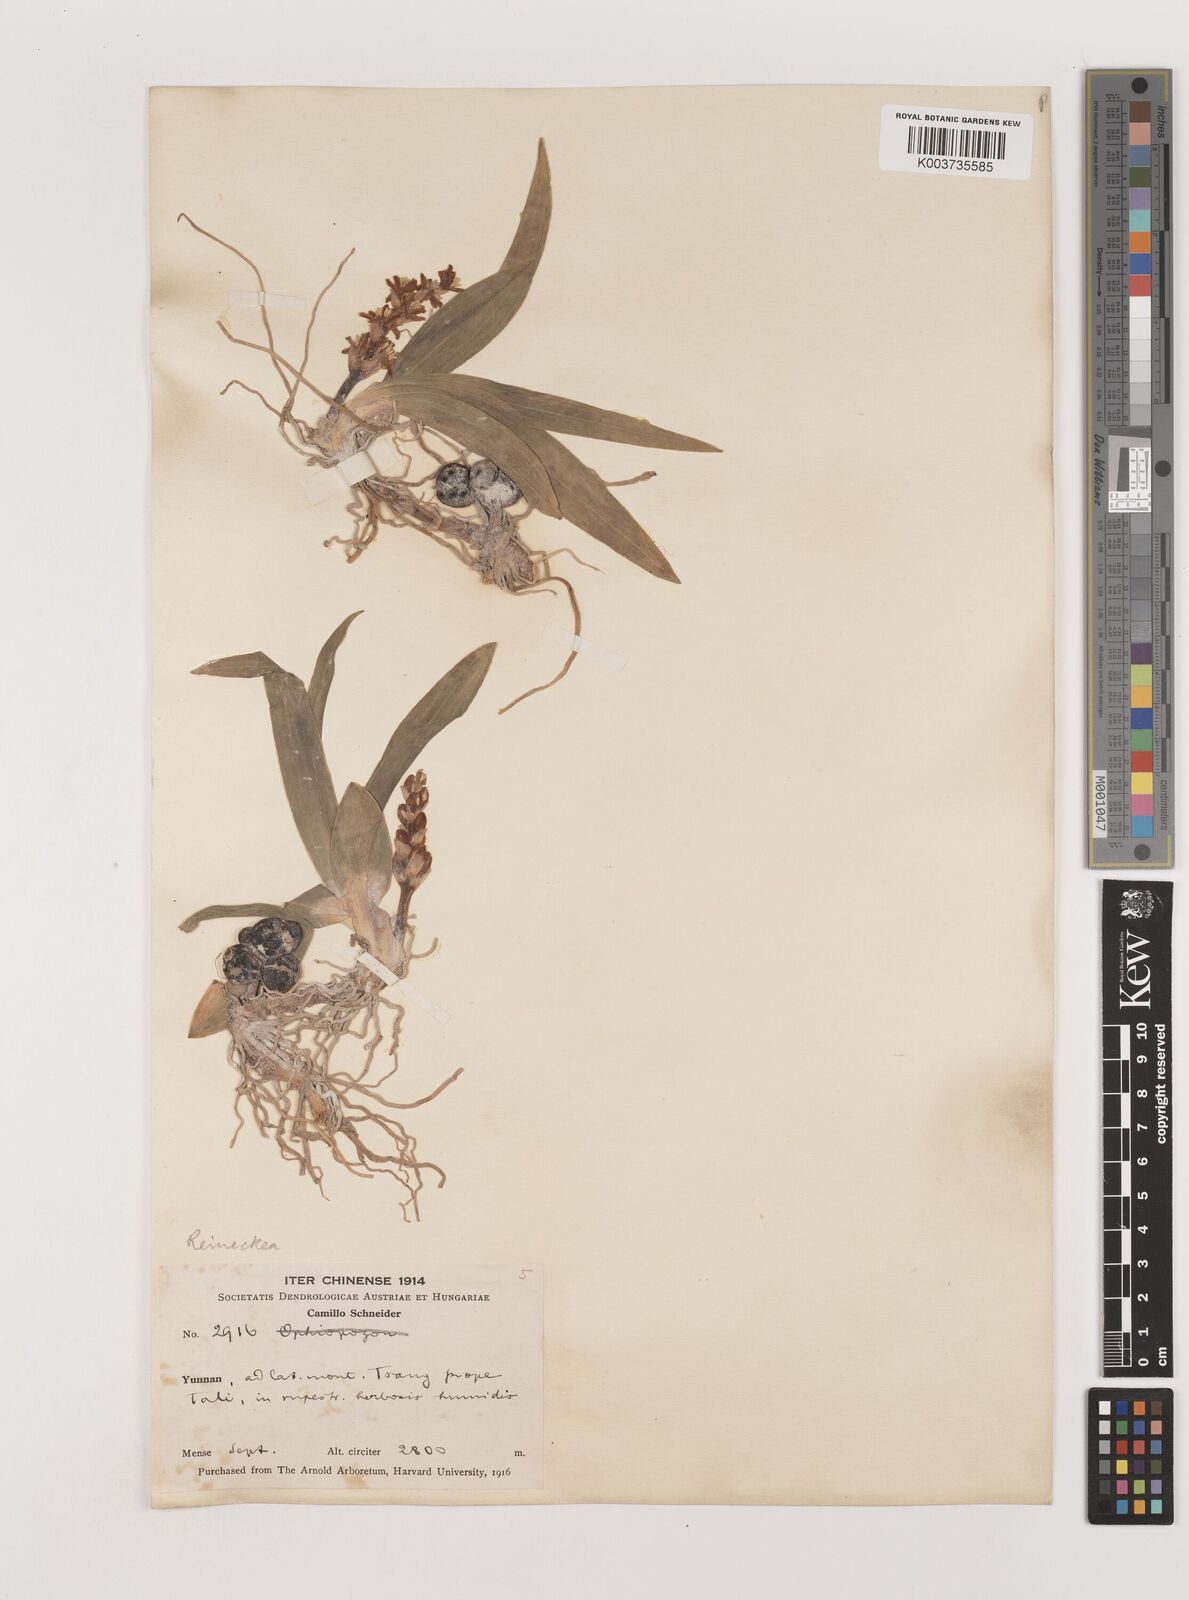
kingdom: Plantae
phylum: Tracheophyta
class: Liliopsida
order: Asparagales
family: Asparagaceae
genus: Reineckea
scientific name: Reineckea carnea
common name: Reineckea
